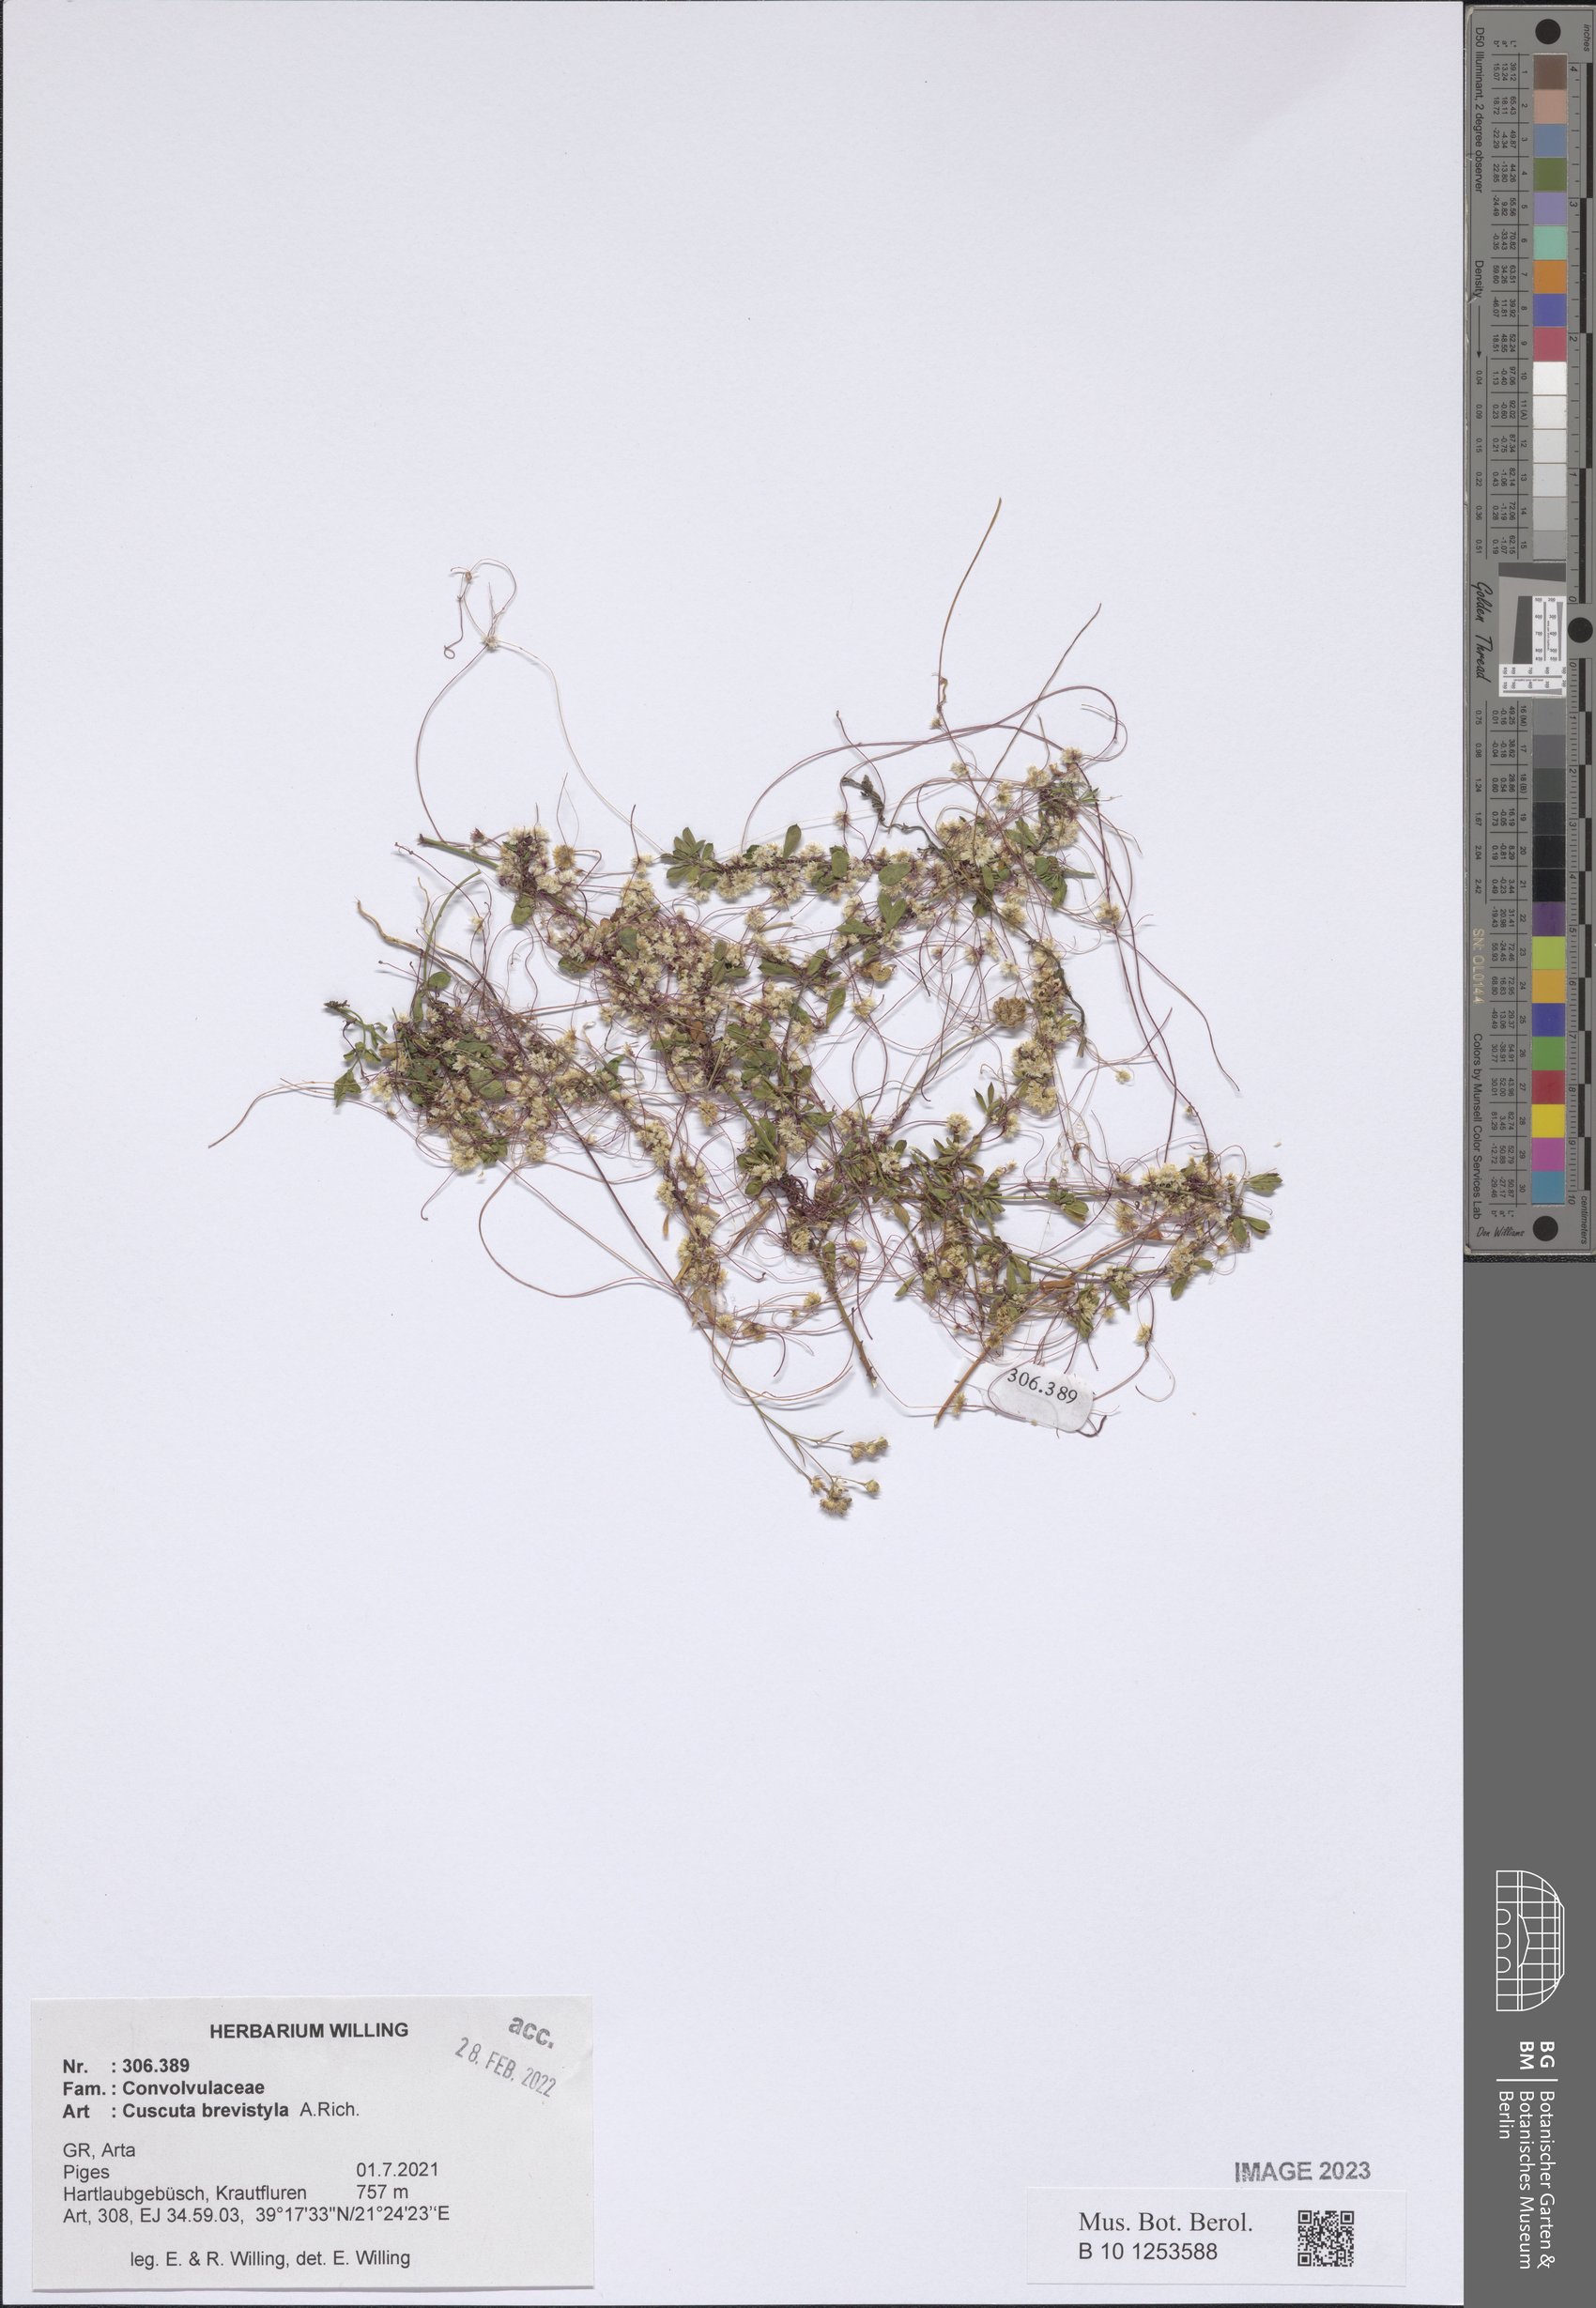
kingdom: Plantae
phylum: Tracheophyta
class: Magnoliopsida
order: Solanales
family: Convolvulaceae
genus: Cuscuta
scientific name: Cuscuta brevistyla
